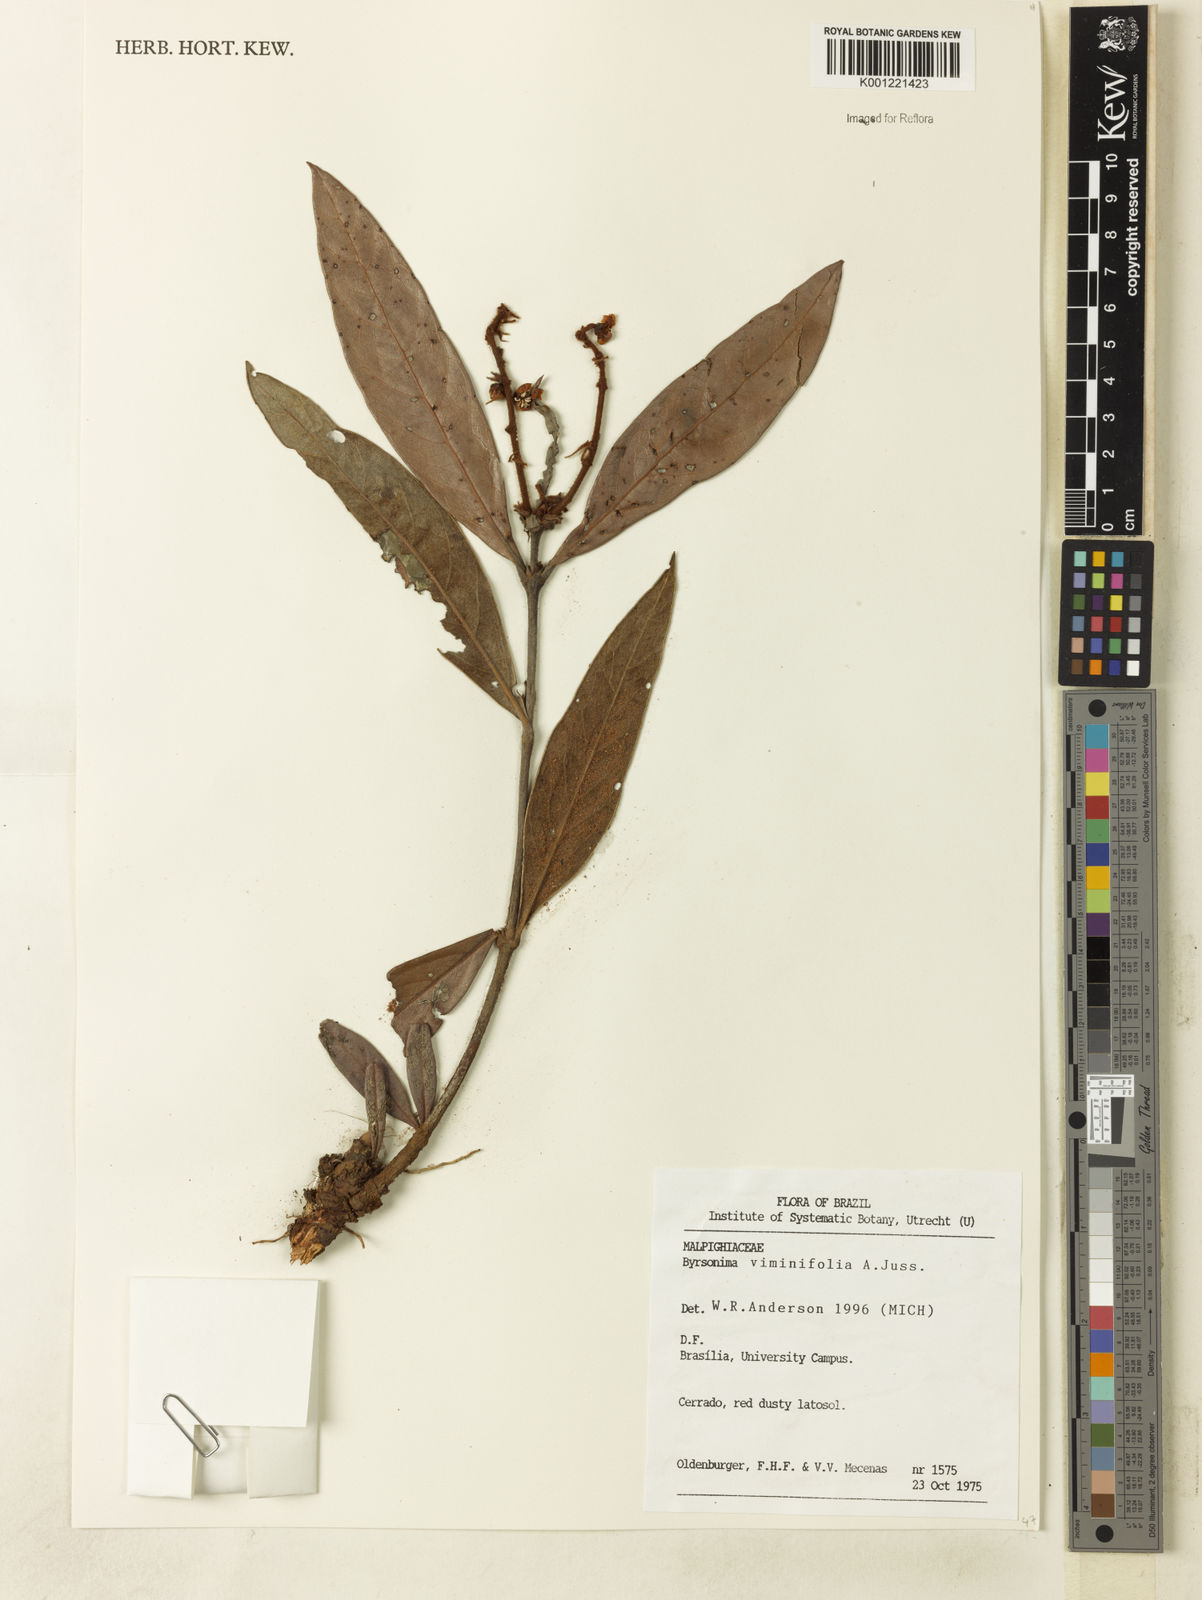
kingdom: Plantae
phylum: Tracheophyta
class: Magnoliopsida
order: Malpighiales
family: Malpighiaceae
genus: Byrsonima
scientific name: Byrsonima viminifolia
